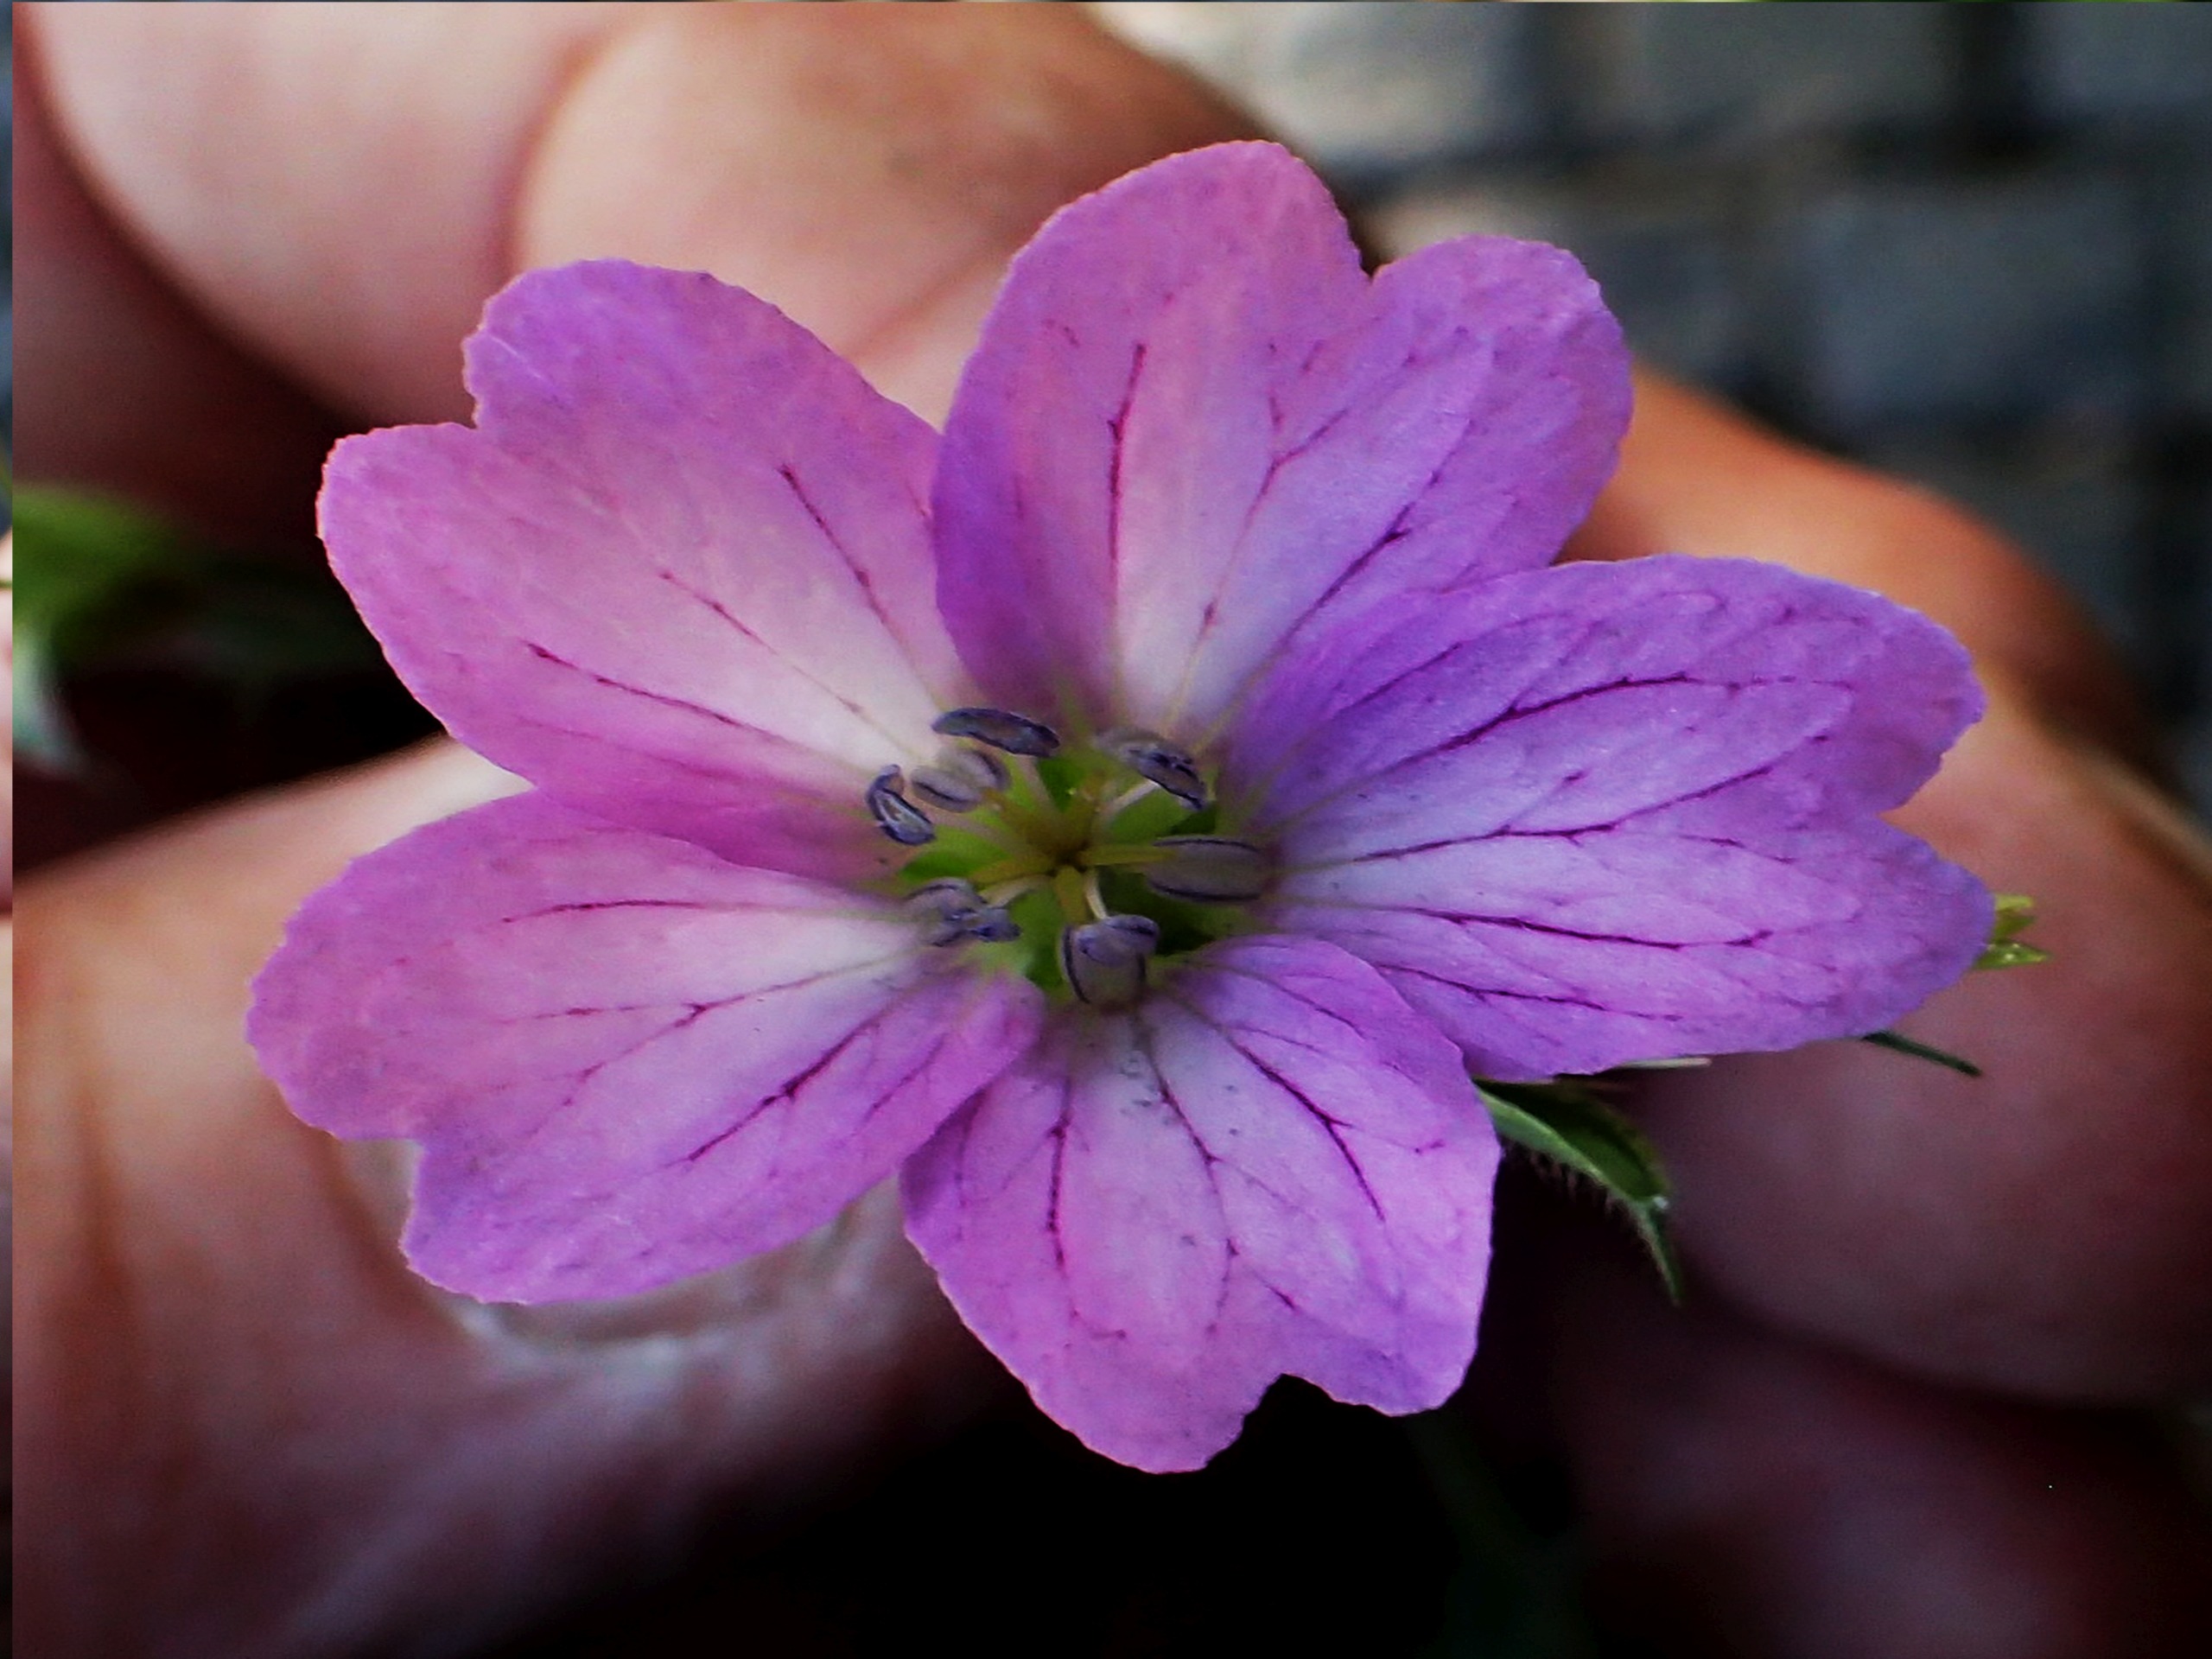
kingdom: Plantae
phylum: Tracheophyta
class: Magnoliopsida
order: Geraniales
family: Geraniaceae
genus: Geranium
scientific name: Geranium palustre
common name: Kær-storkenæb
